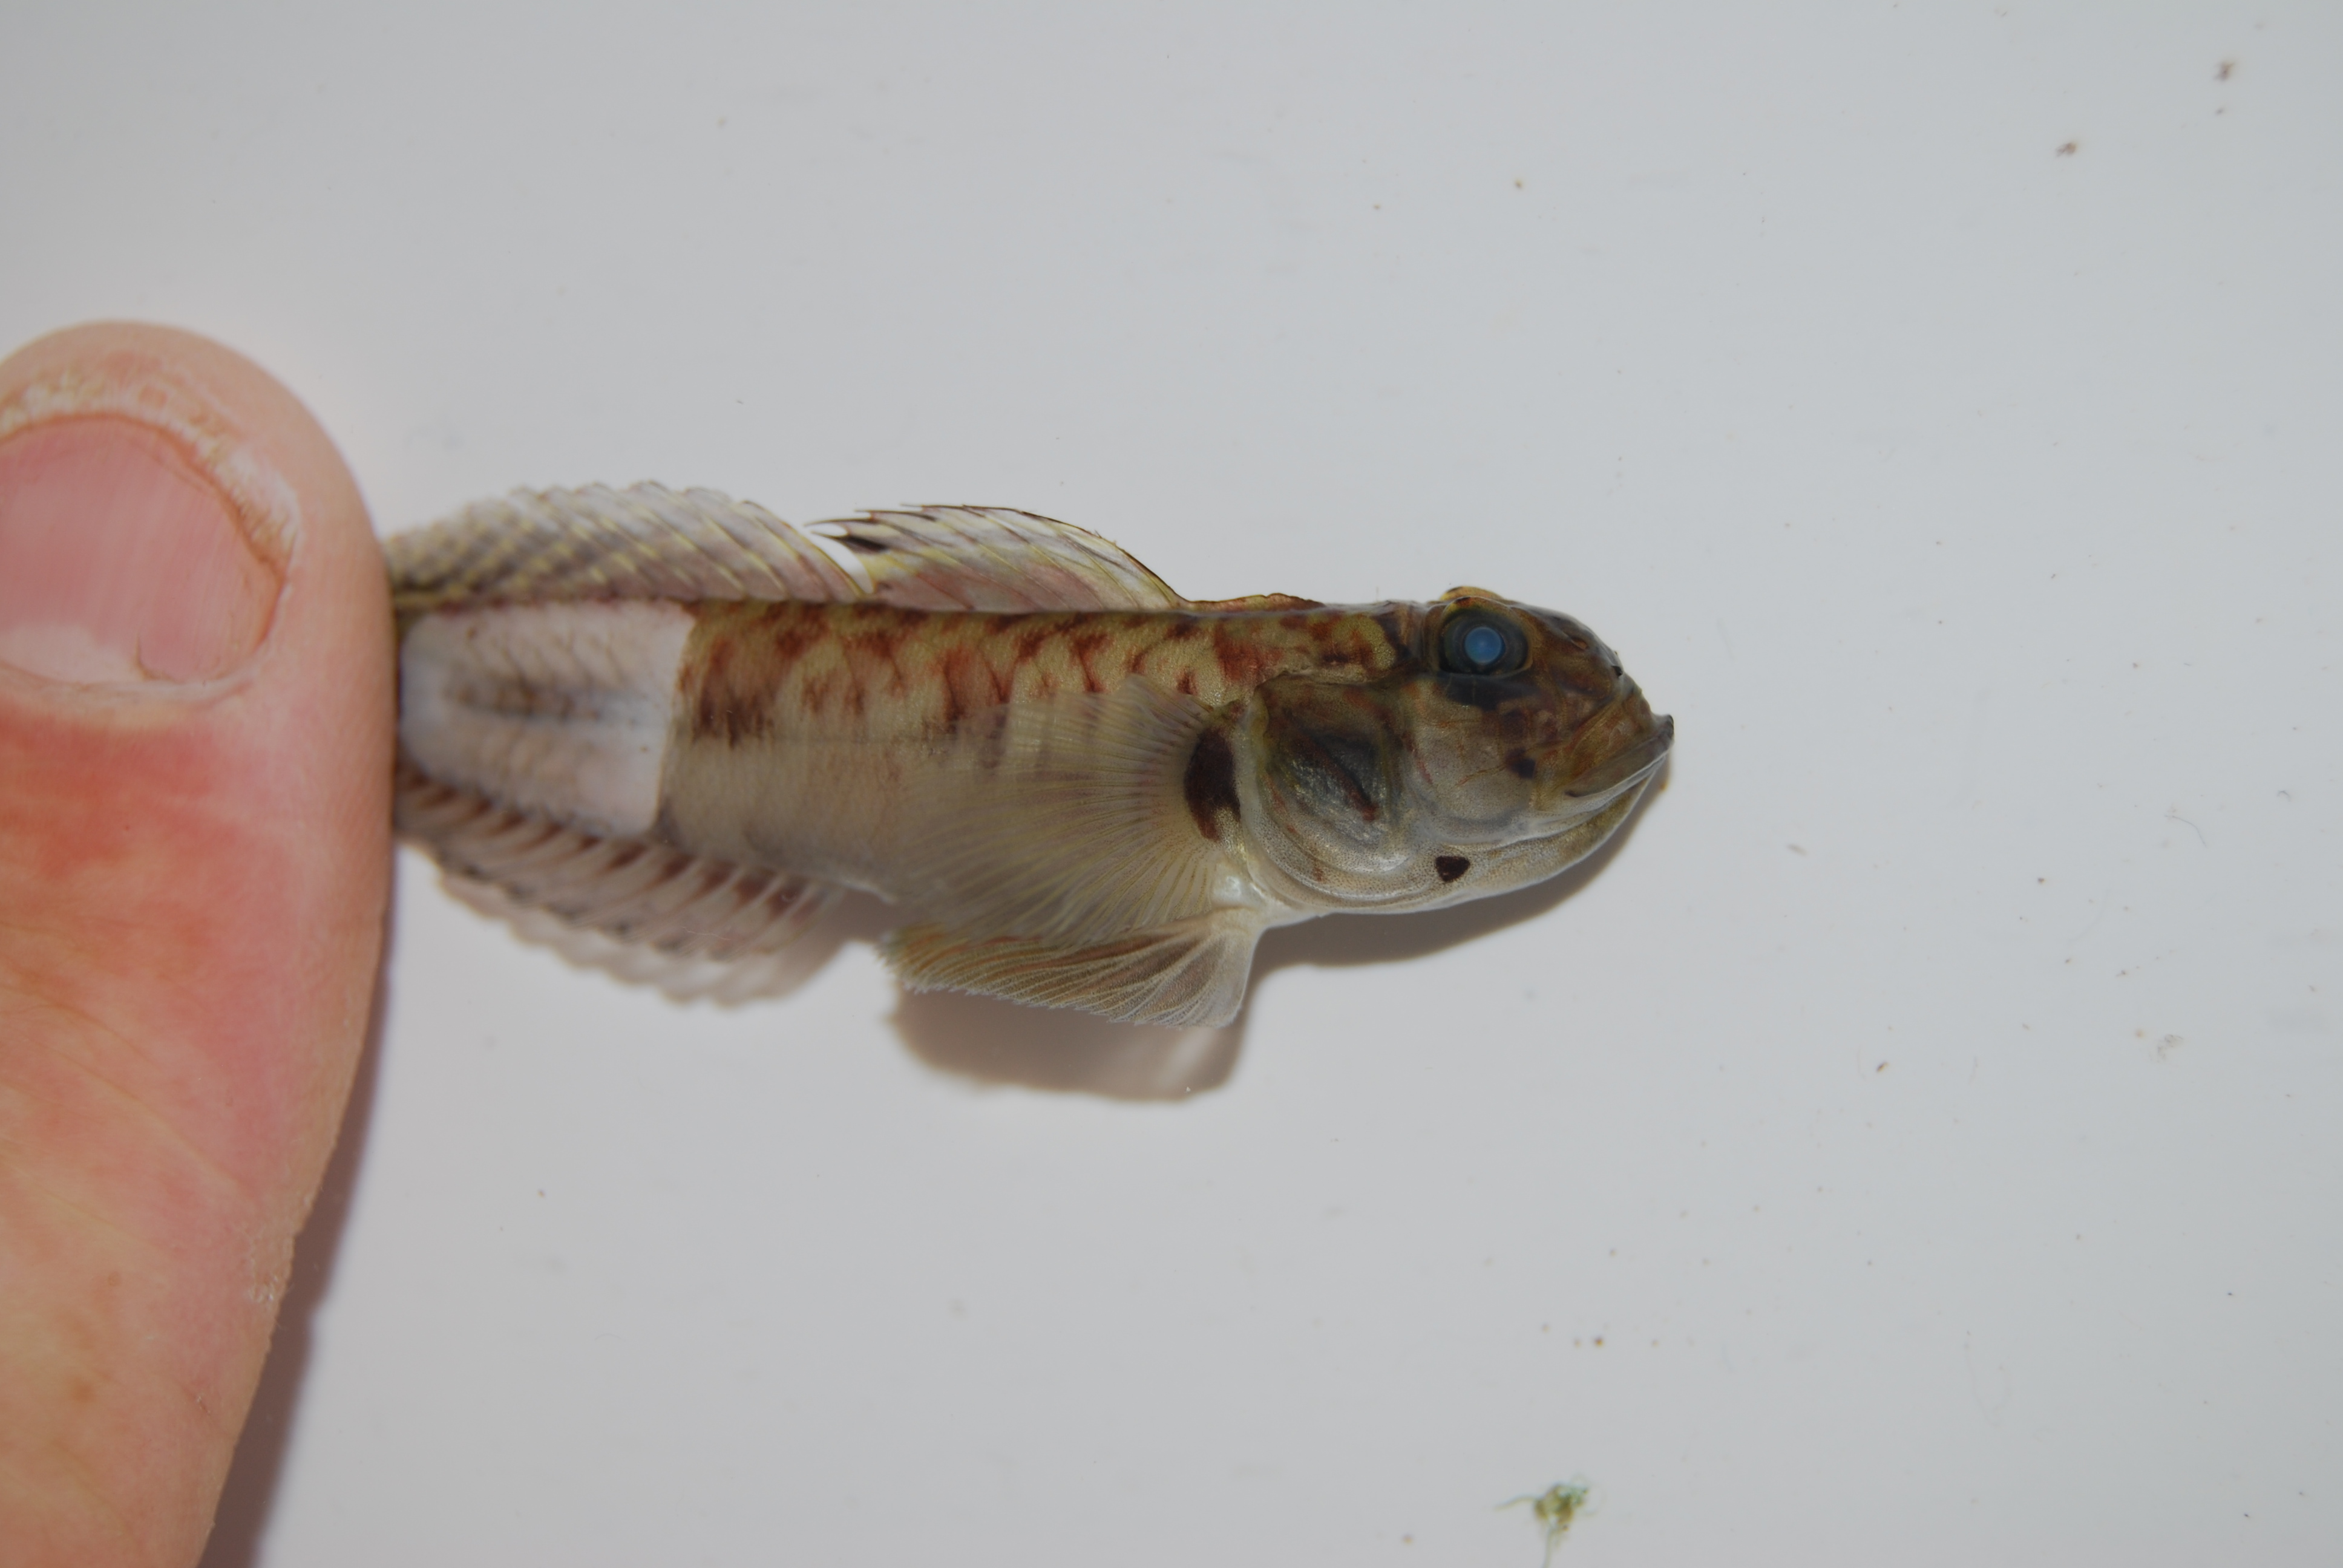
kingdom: Animalia
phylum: Chordata
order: Perciformes
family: Gobiidae
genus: Oxyurichthys
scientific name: Oxyurichthys lonchotus
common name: Speartail mudgoby
